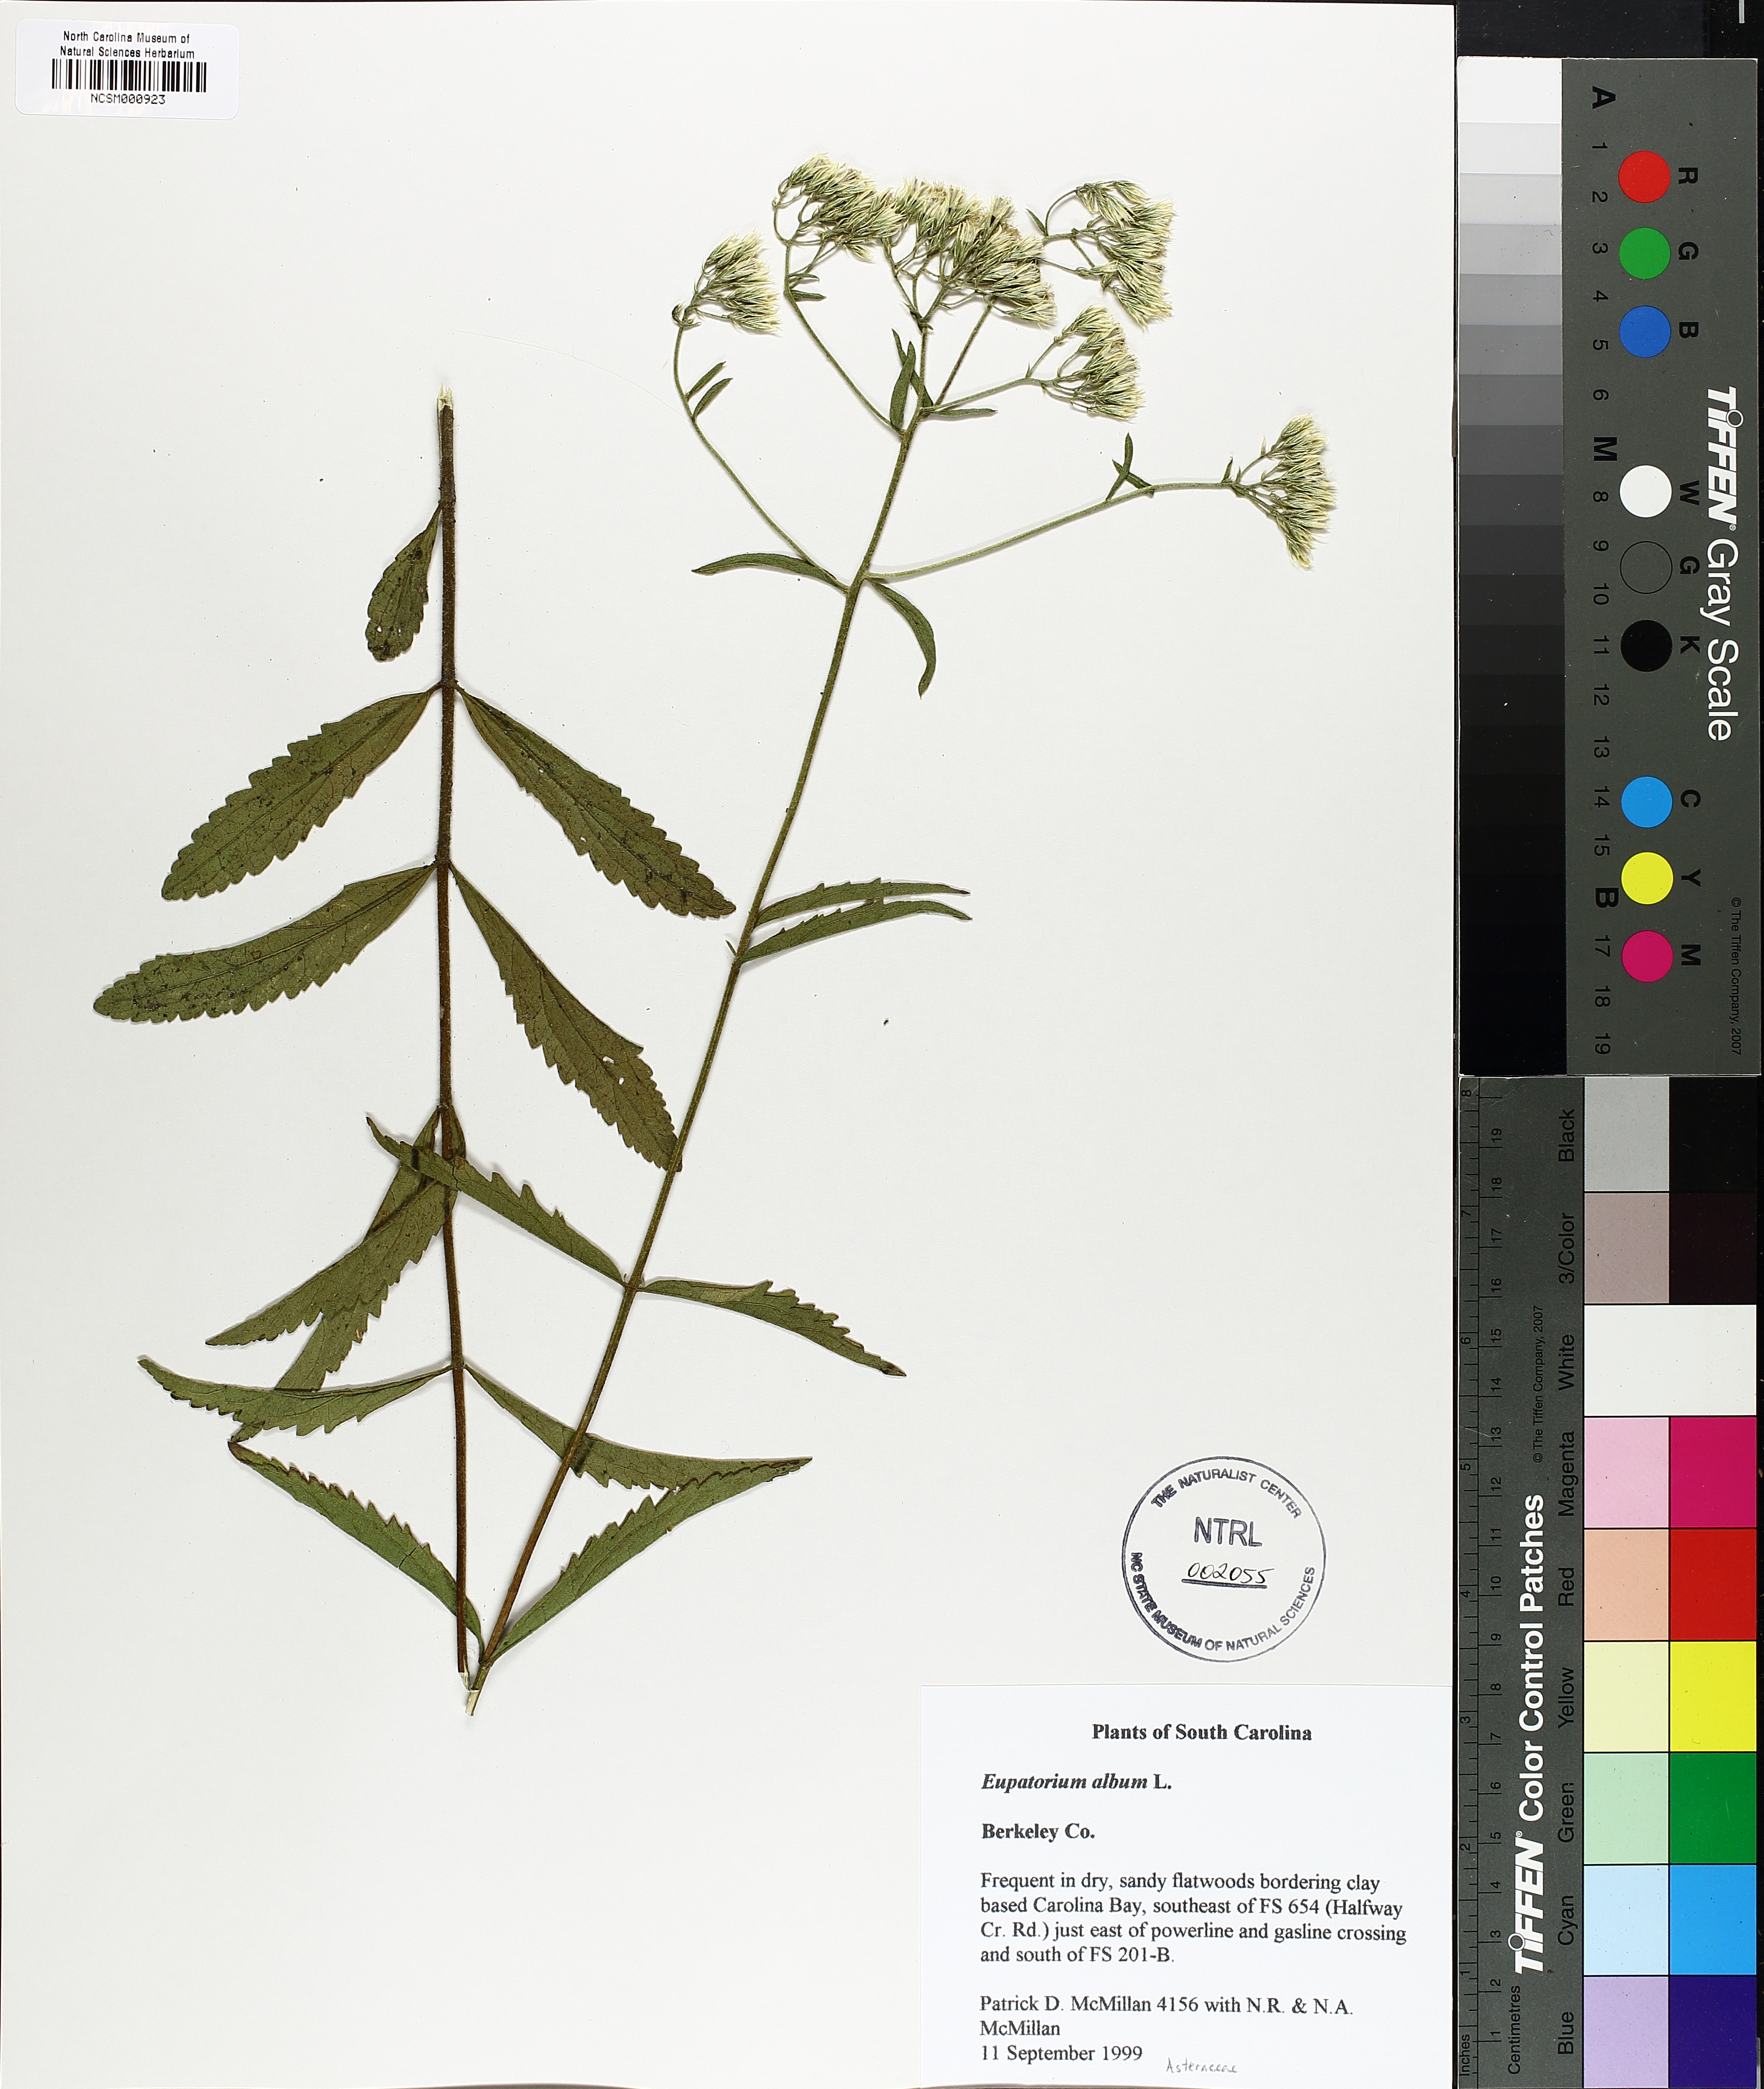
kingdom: Plantae
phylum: Tracheophyta
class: Magnoliopsida
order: Asterales
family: Asteraceae
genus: Eupatorium
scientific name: Eupatorium album
